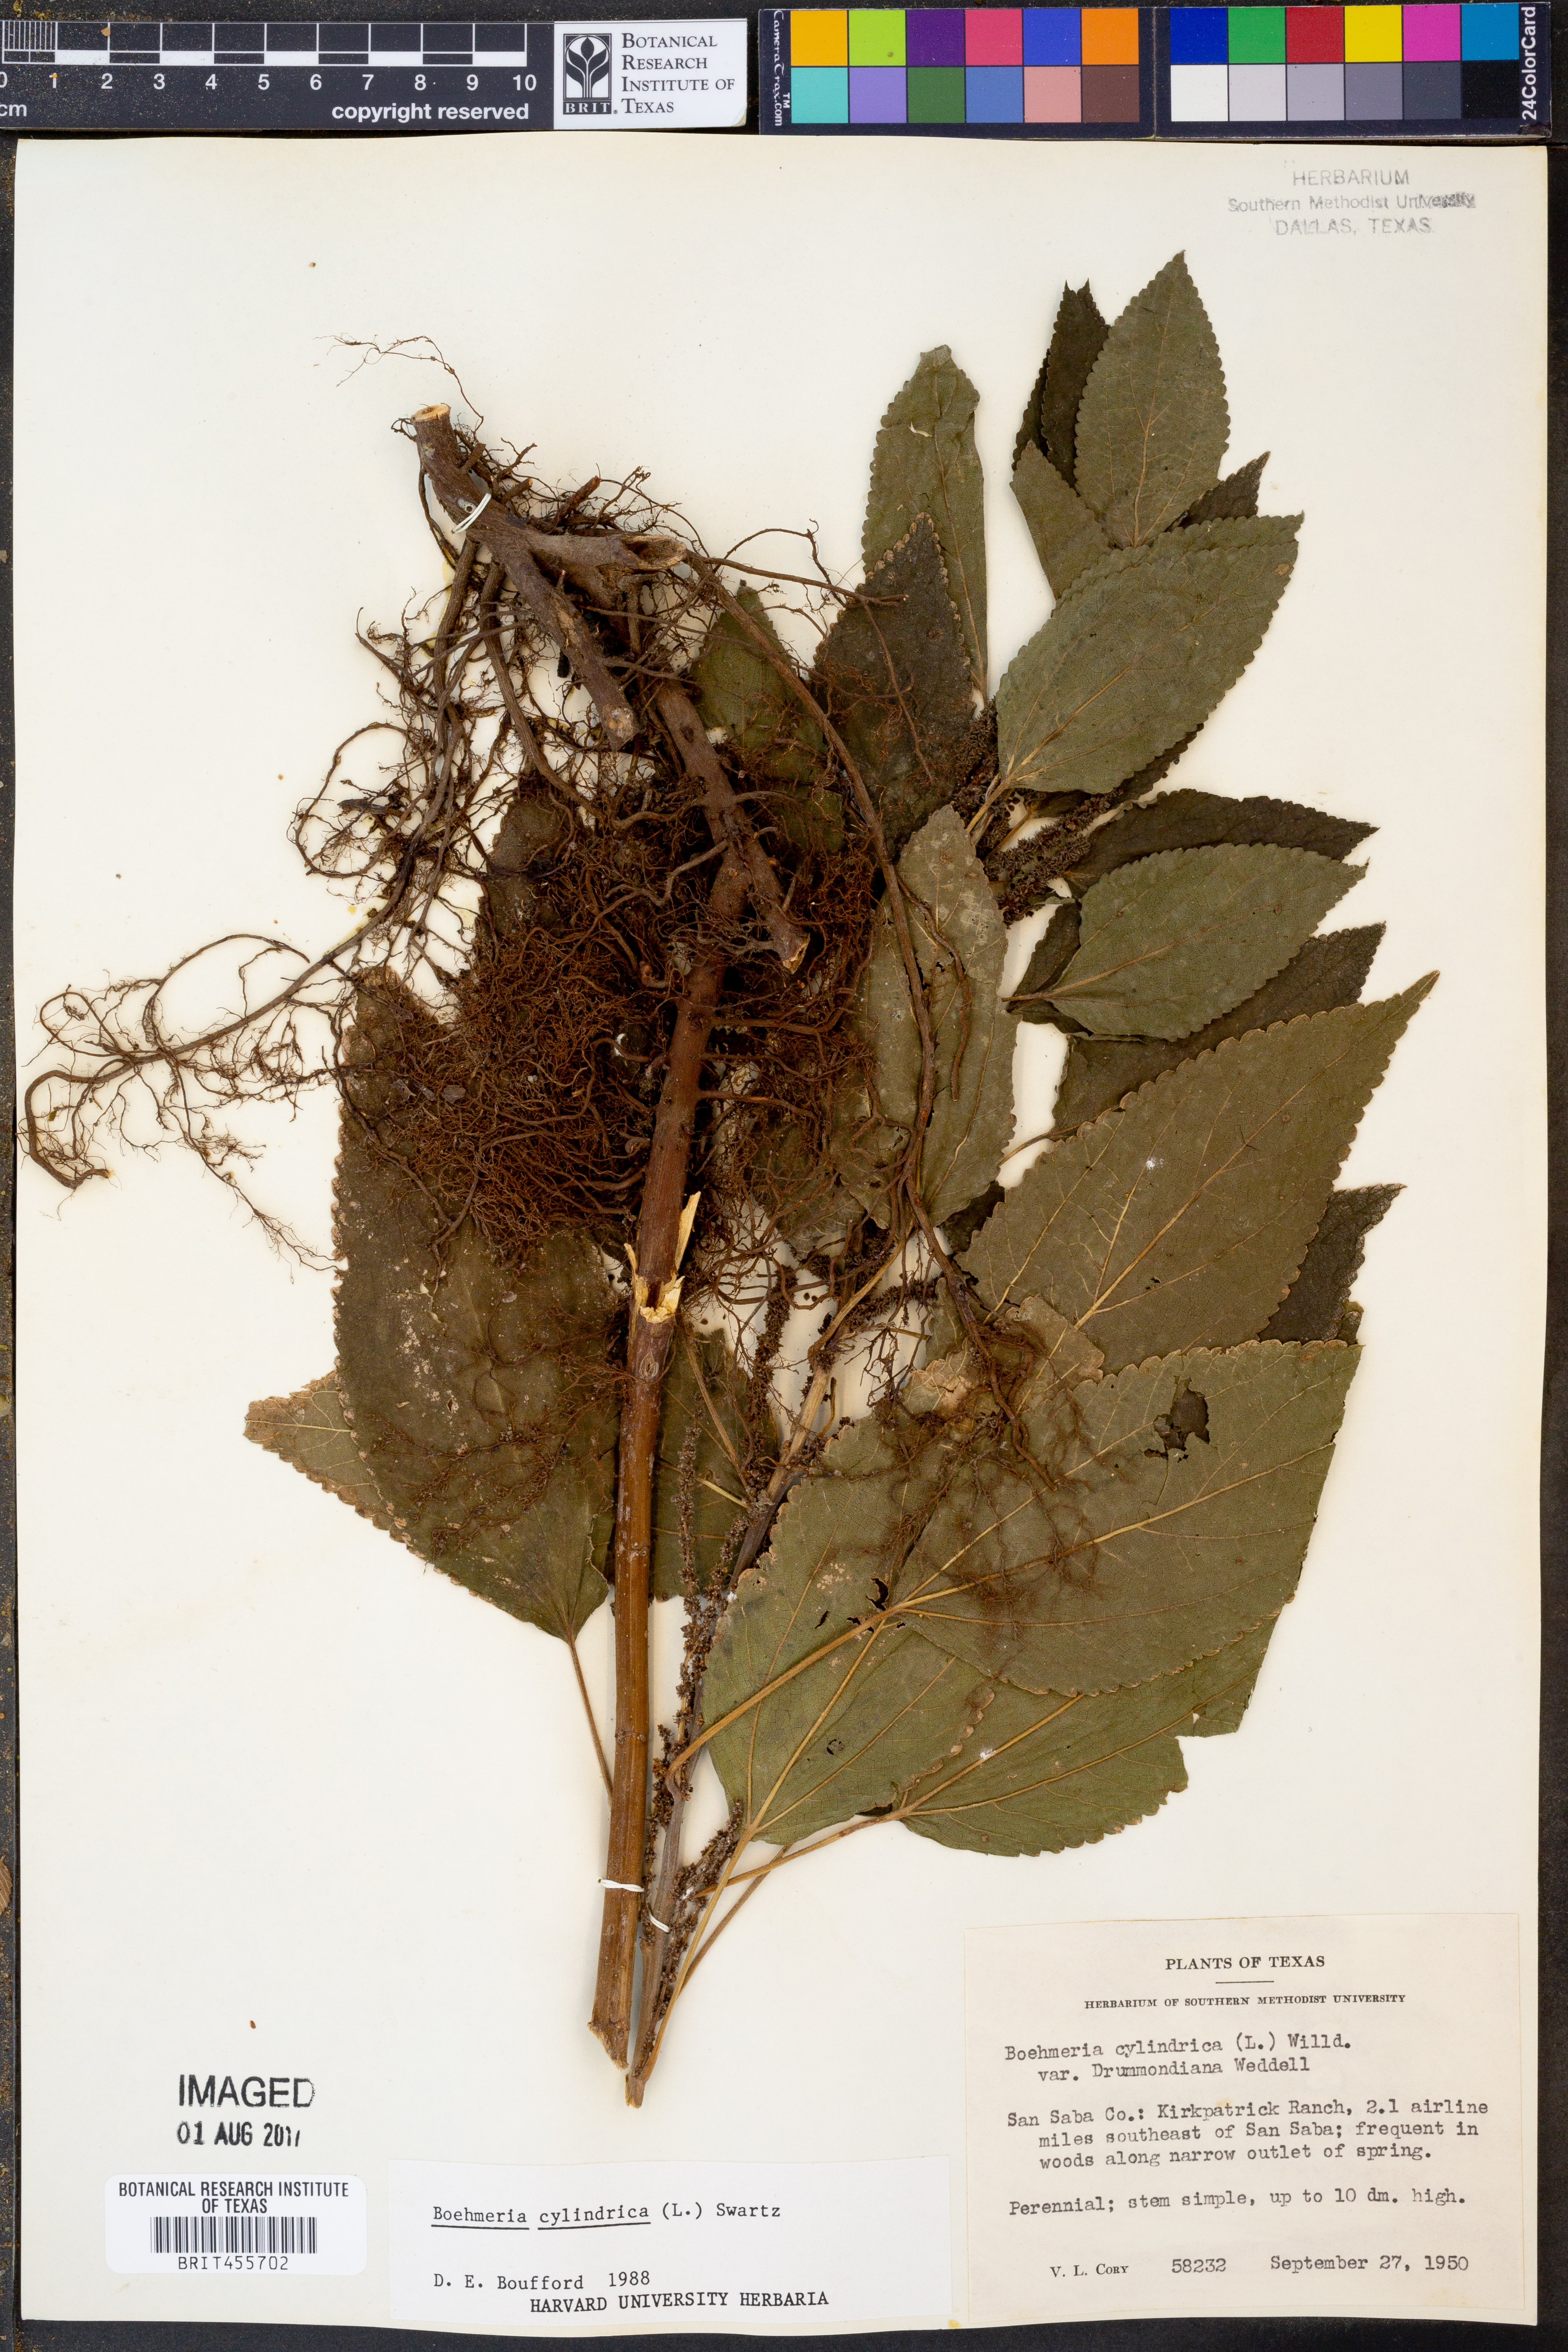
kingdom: Plantae
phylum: Tracheophyta
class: Magnoliopsida
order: Rosales
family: Urticaceae
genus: Boehmeria
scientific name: Boehmeria cylindrica
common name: Bog-hemp
